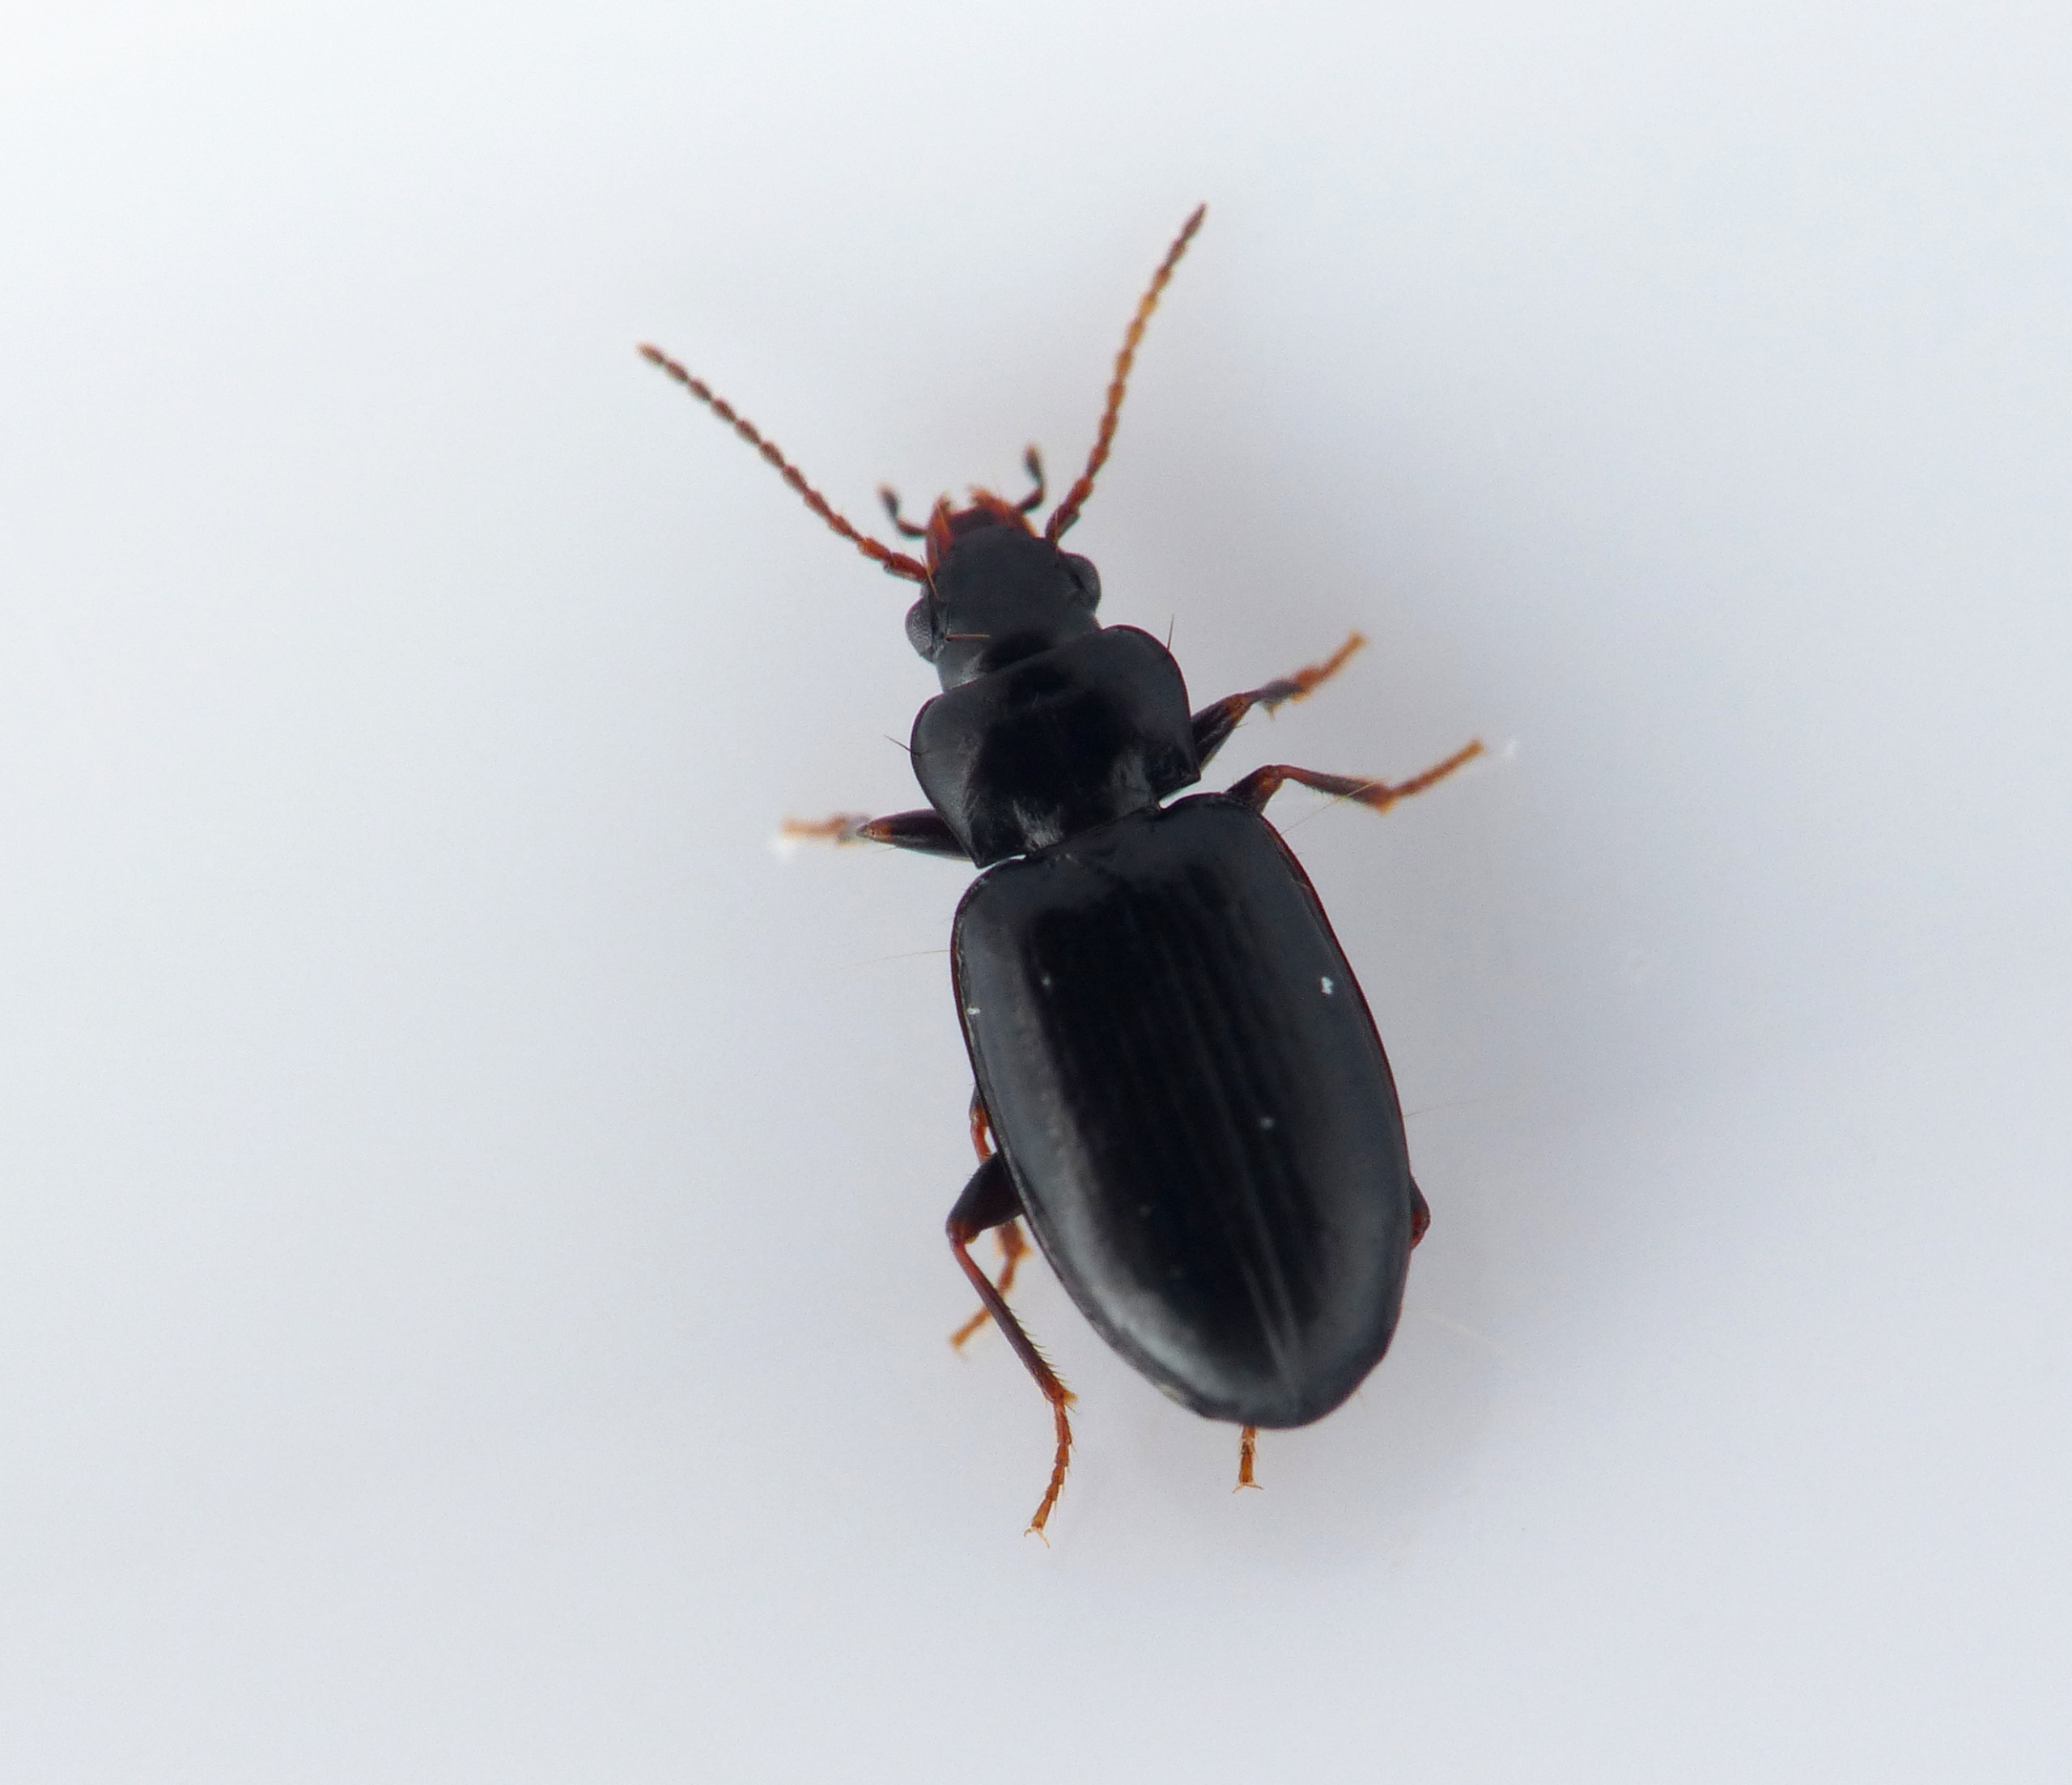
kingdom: Animalia
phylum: Arthropoda
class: Insecta
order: Coleoptera
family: Carabidae
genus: Tachyta
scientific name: Tachyta nana
